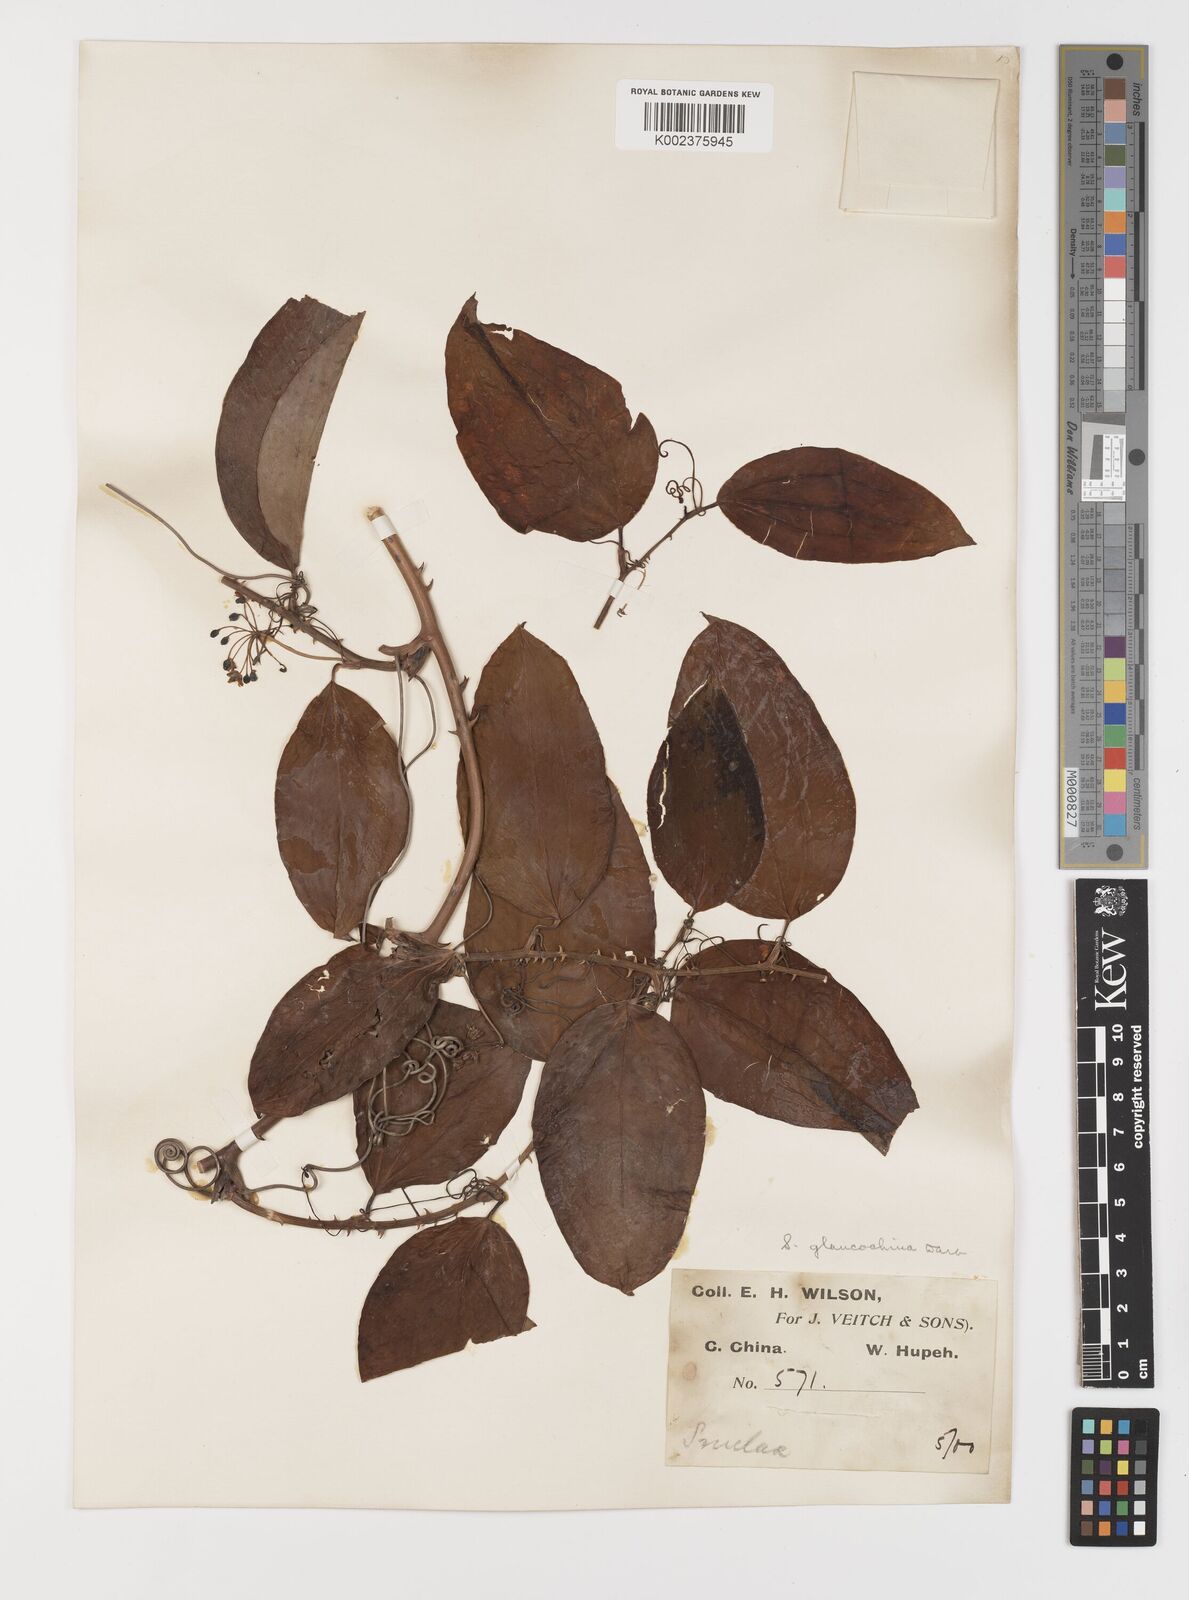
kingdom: Plantae
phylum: Tracheophyta
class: Liliopsida
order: Liliales
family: Smilacaceae
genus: Smilax
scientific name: Smilax glaucochina
